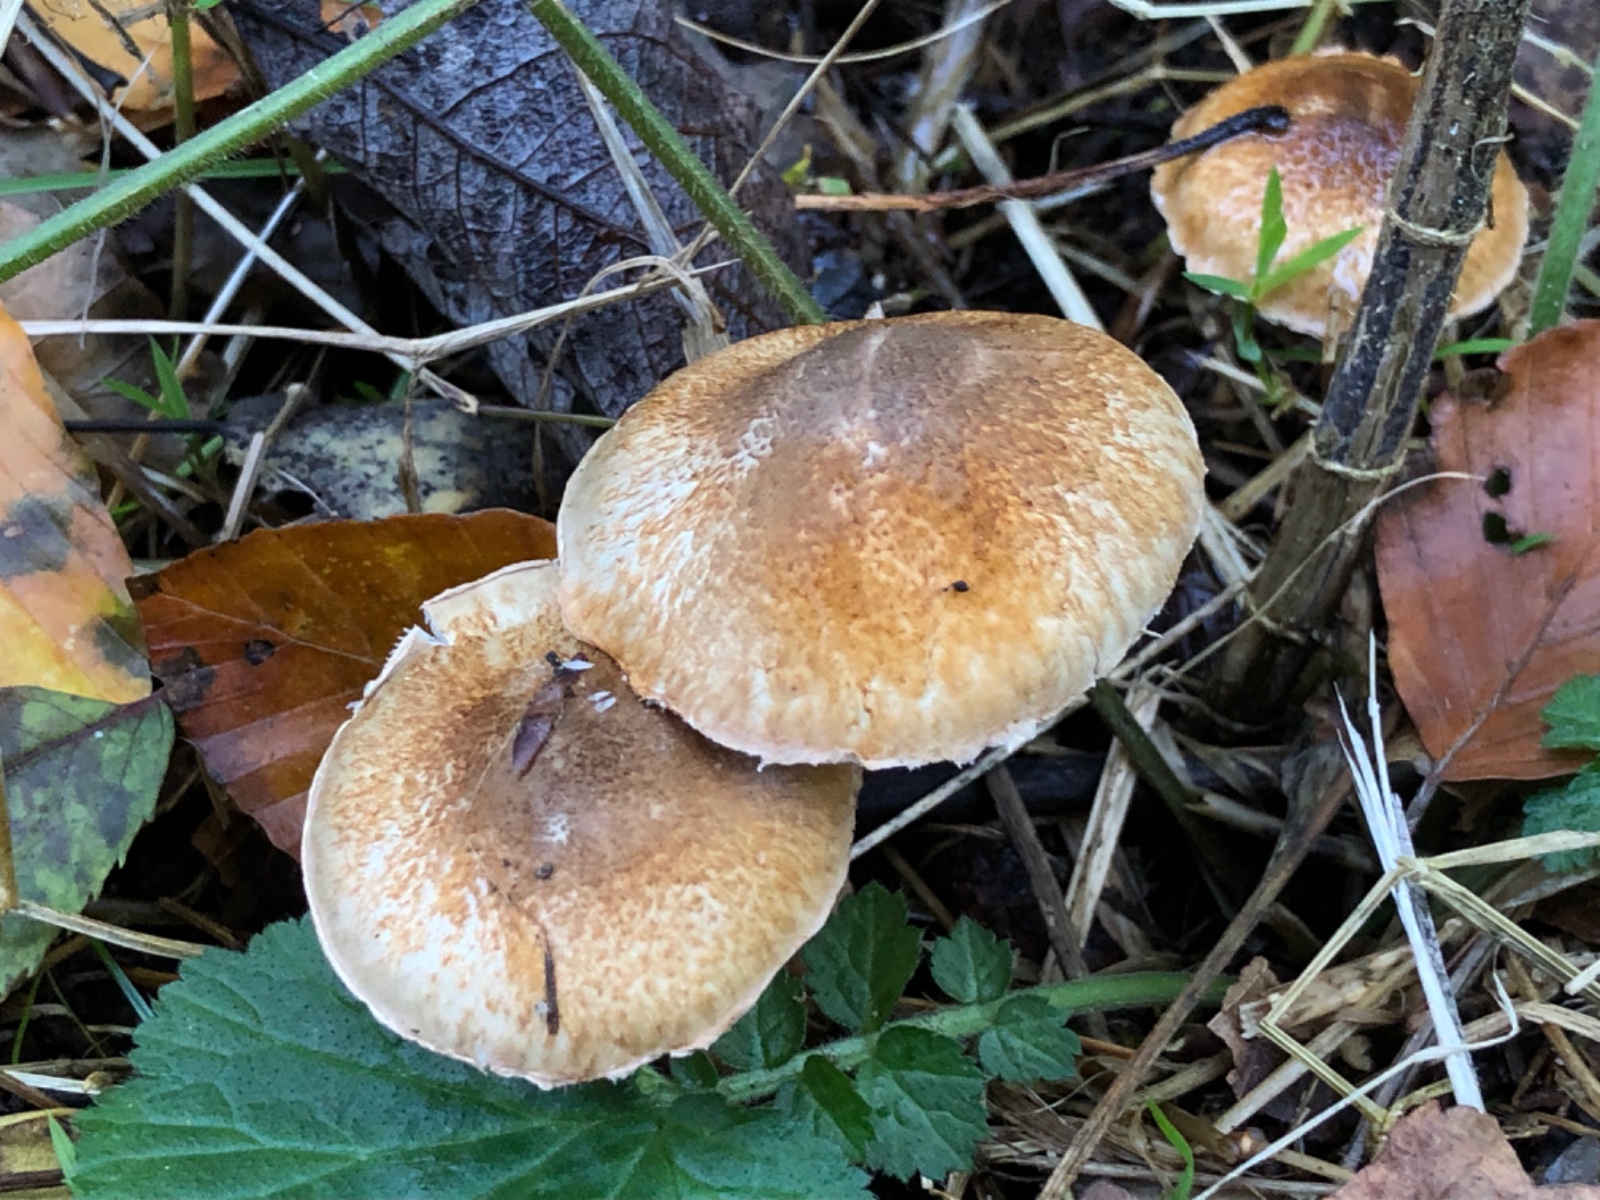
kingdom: Fungi
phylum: Basidiomycota
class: Agaricomycetes
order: Agaricales
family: Agaricaceae
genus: Leucocoprinus
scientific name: Leucocoprinus straminellus
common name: rustbrun parasolhat
